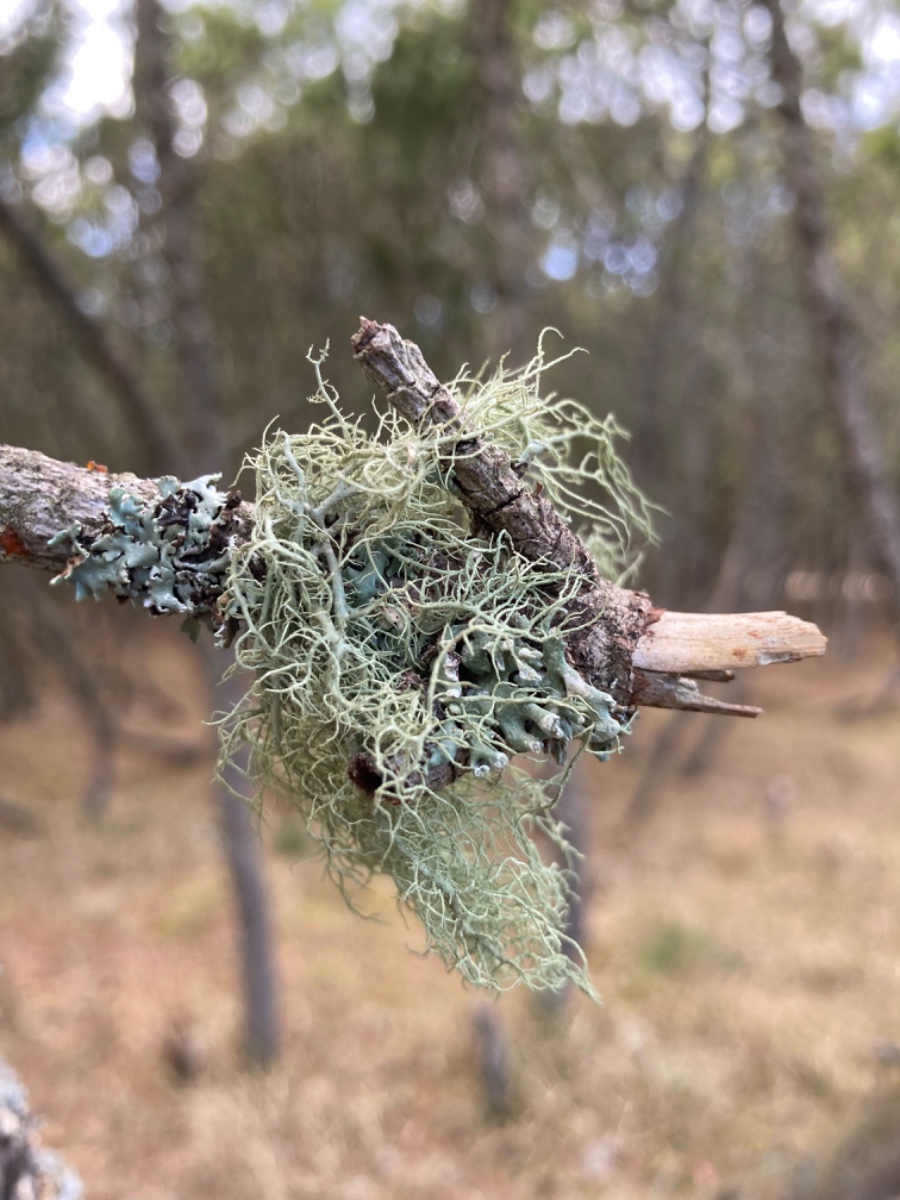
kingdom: Fungi
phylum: Ascomycota
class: Lecanoromycetes
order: Lecanorales
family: Parmeliaceae
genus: Usnea
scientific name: Usnea hirta
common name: liden skæglav
